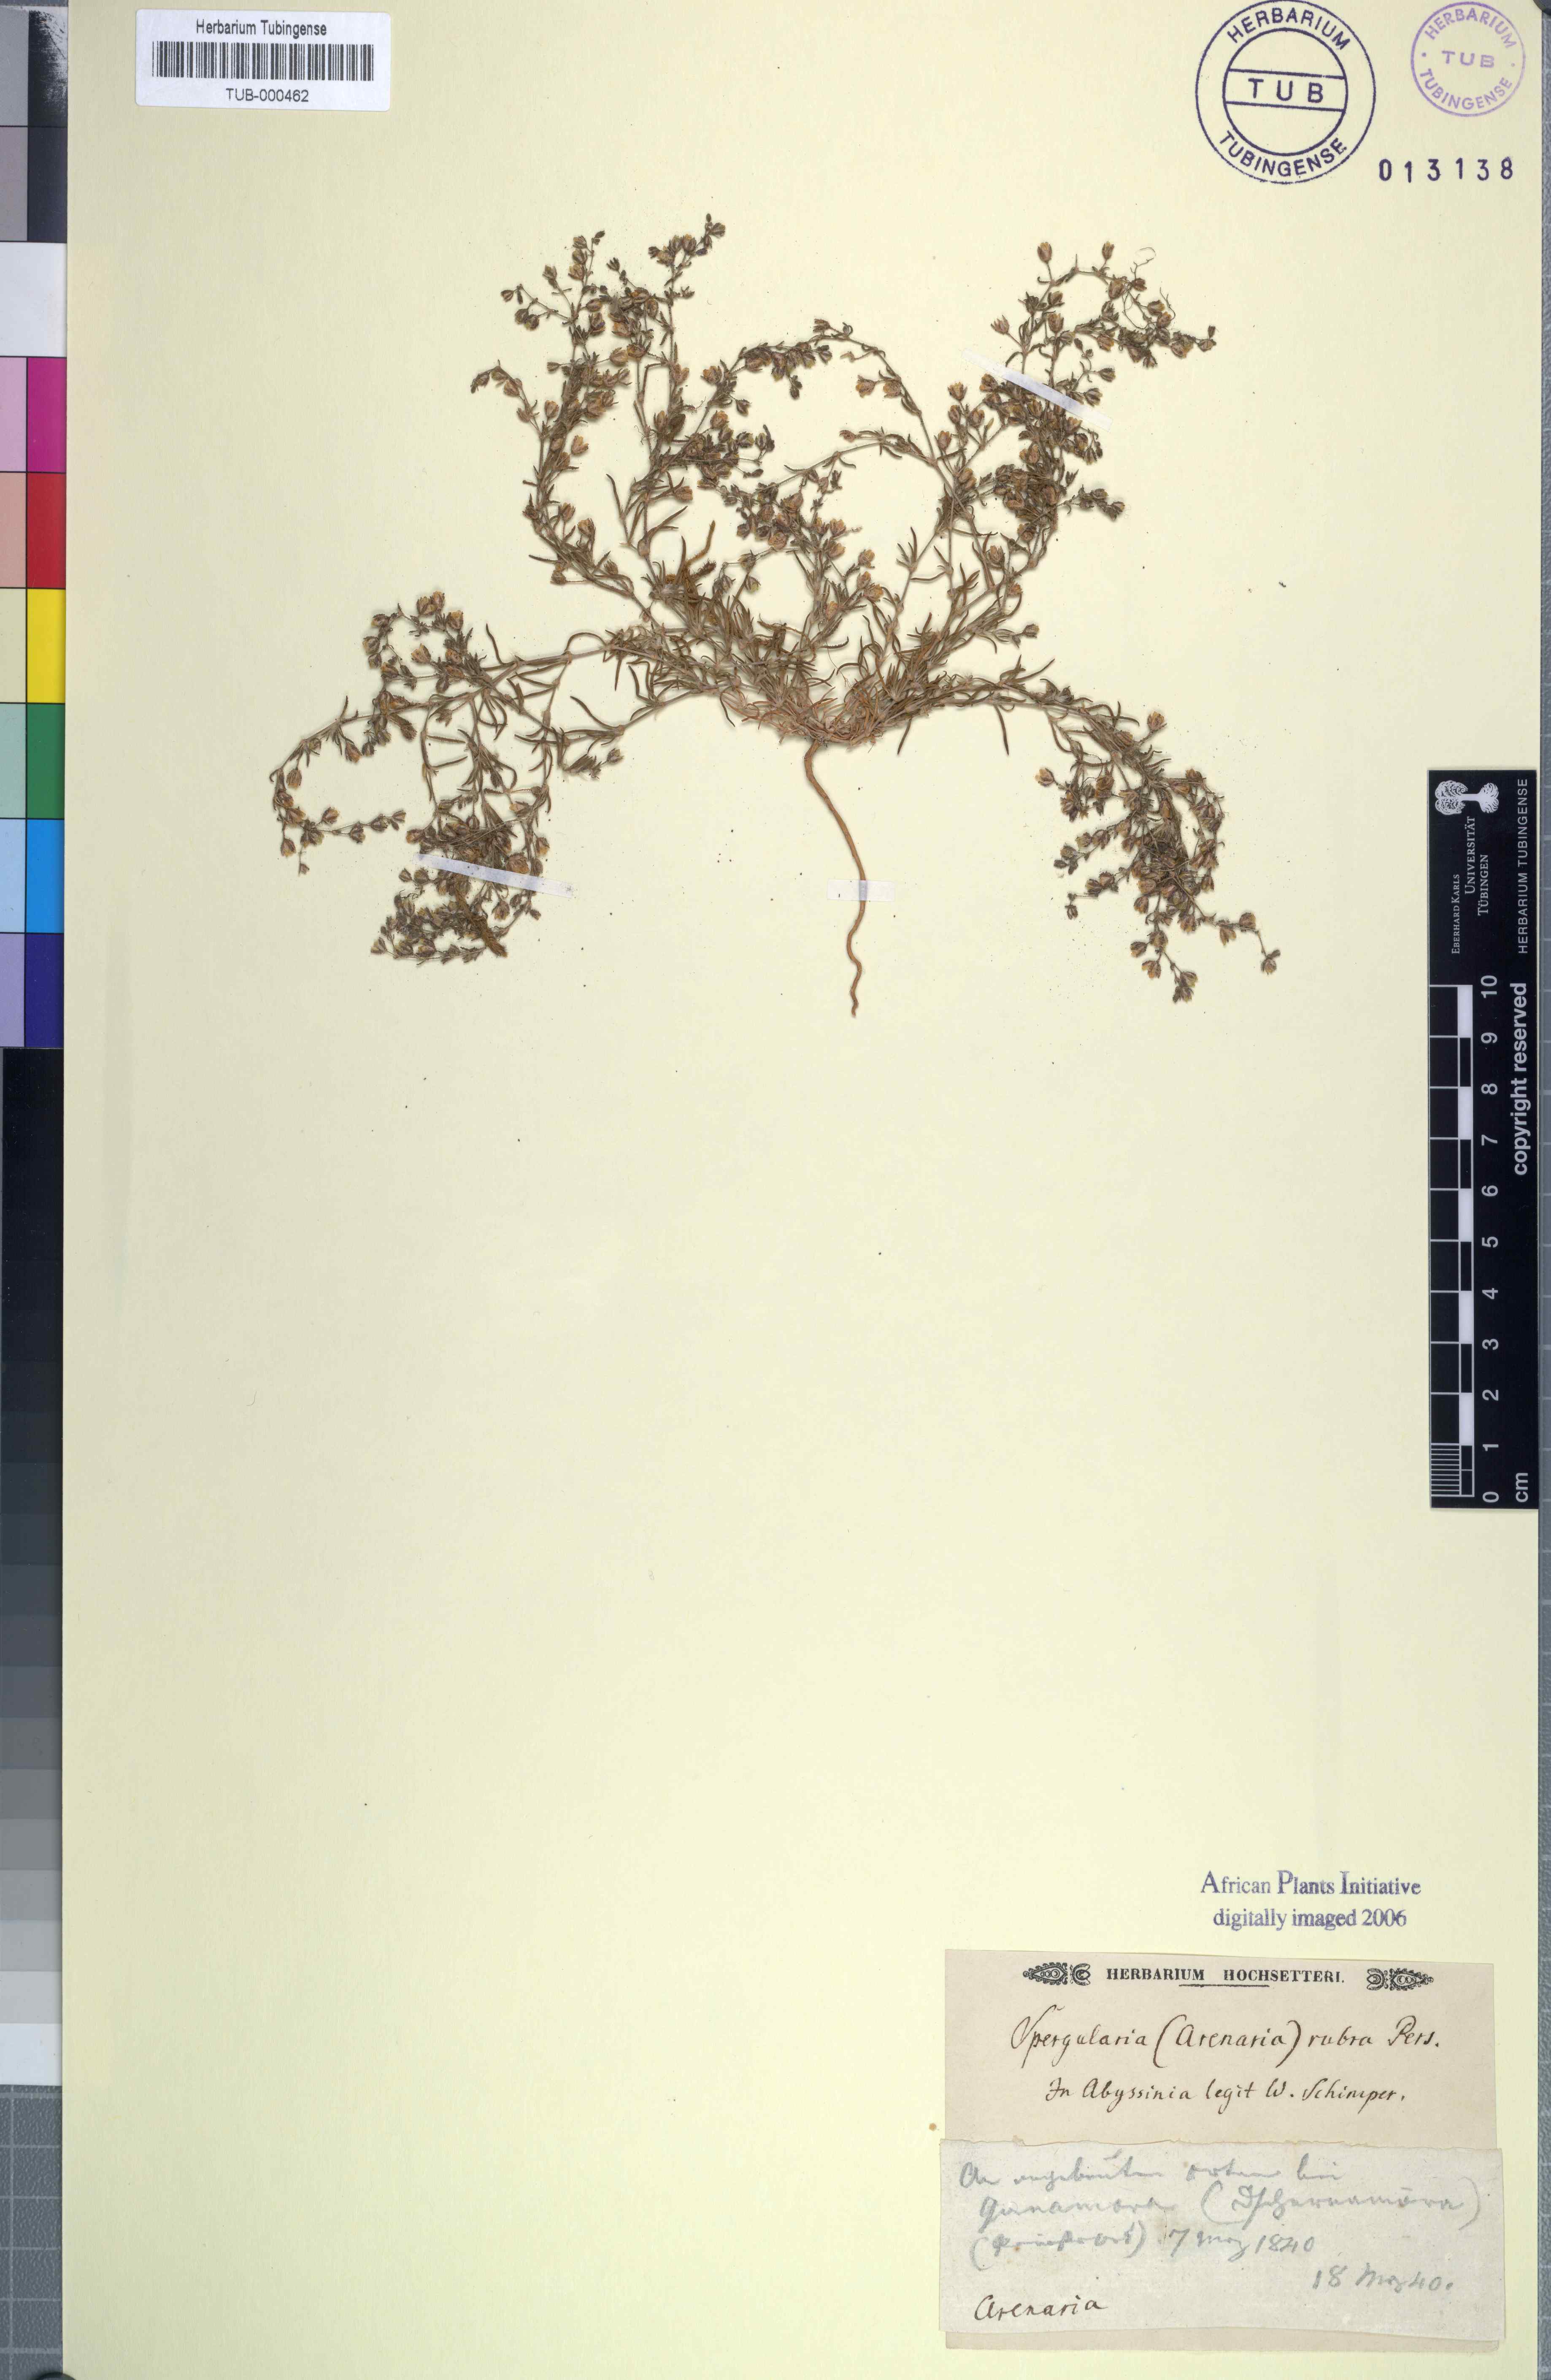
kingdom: Plantae
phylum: Tracheophyta
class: Magnoliopsida
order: Caryophyllales
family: Caryophyllaceae
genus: Spergularia
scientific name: Spergularia rubra
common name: Red sand-spurrey
